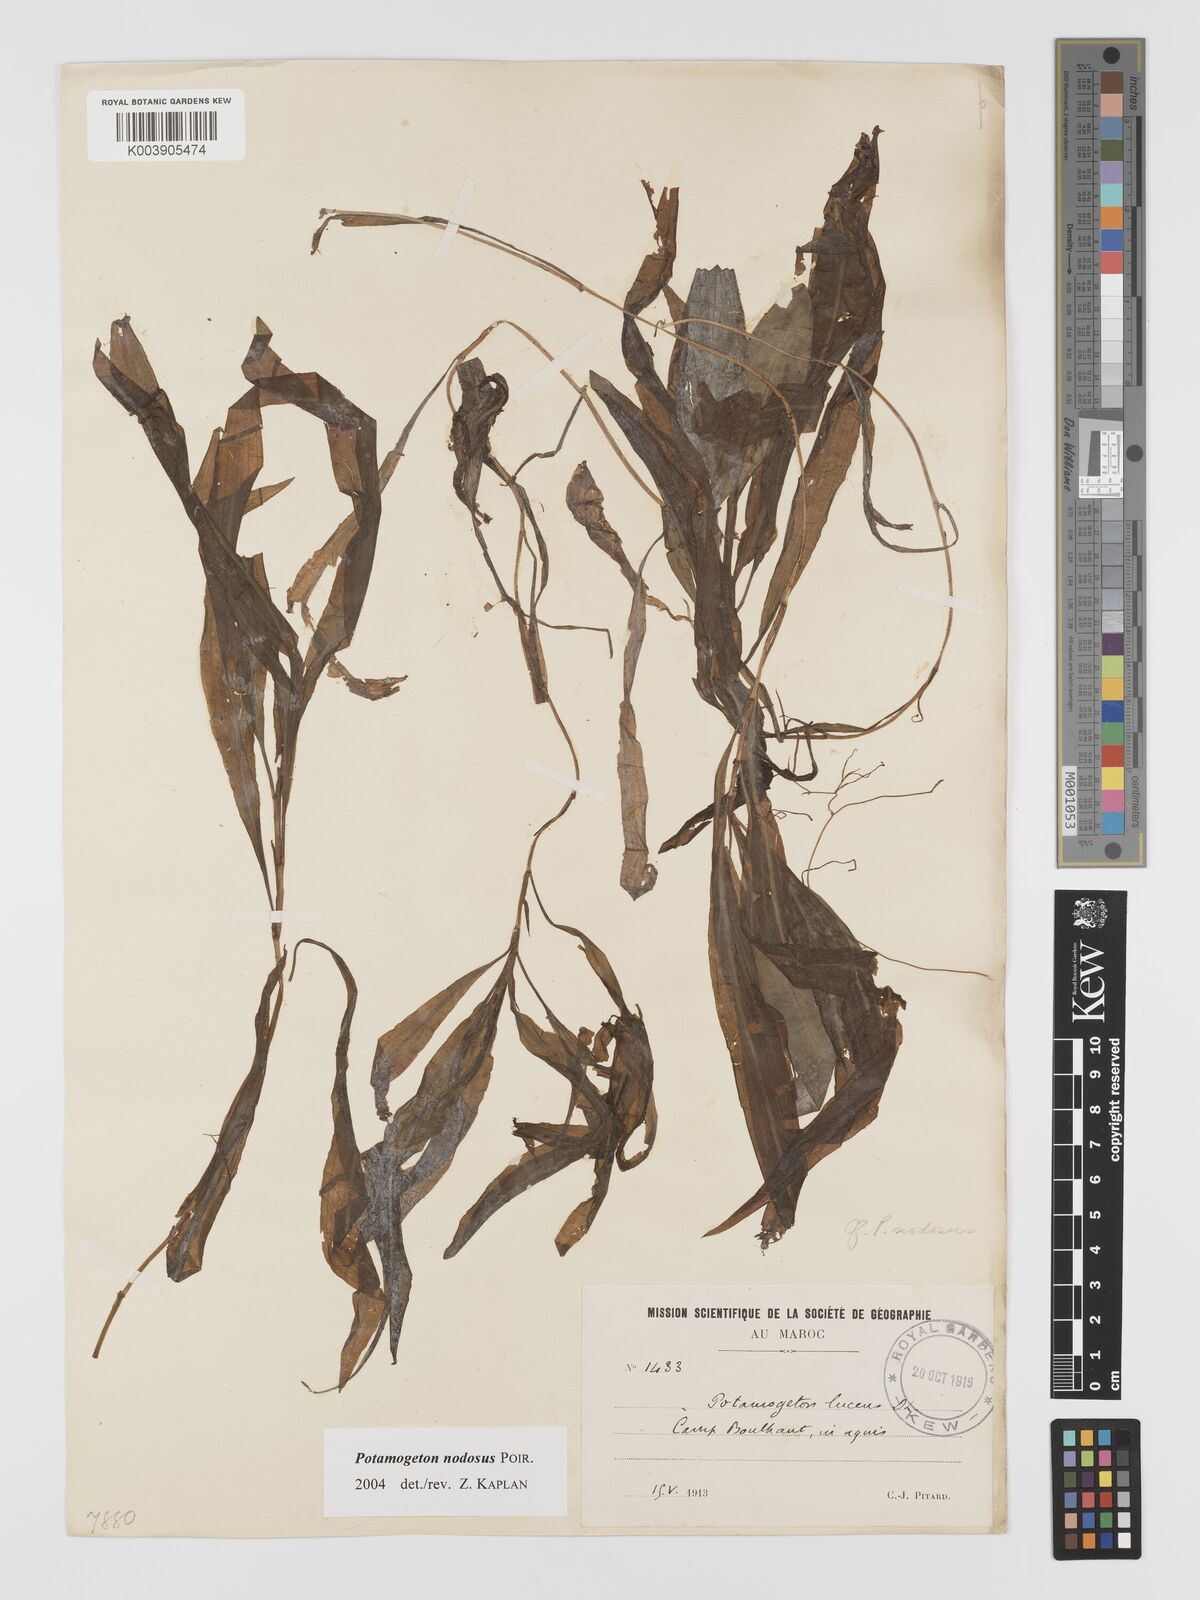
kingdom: Plantae
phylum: Tracheophyta
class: Liliopsida
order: Alismatales
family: Potamogetonaceae
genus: Potamogeton
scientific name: Potamogeton nodosus
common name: Loddon pondweed
